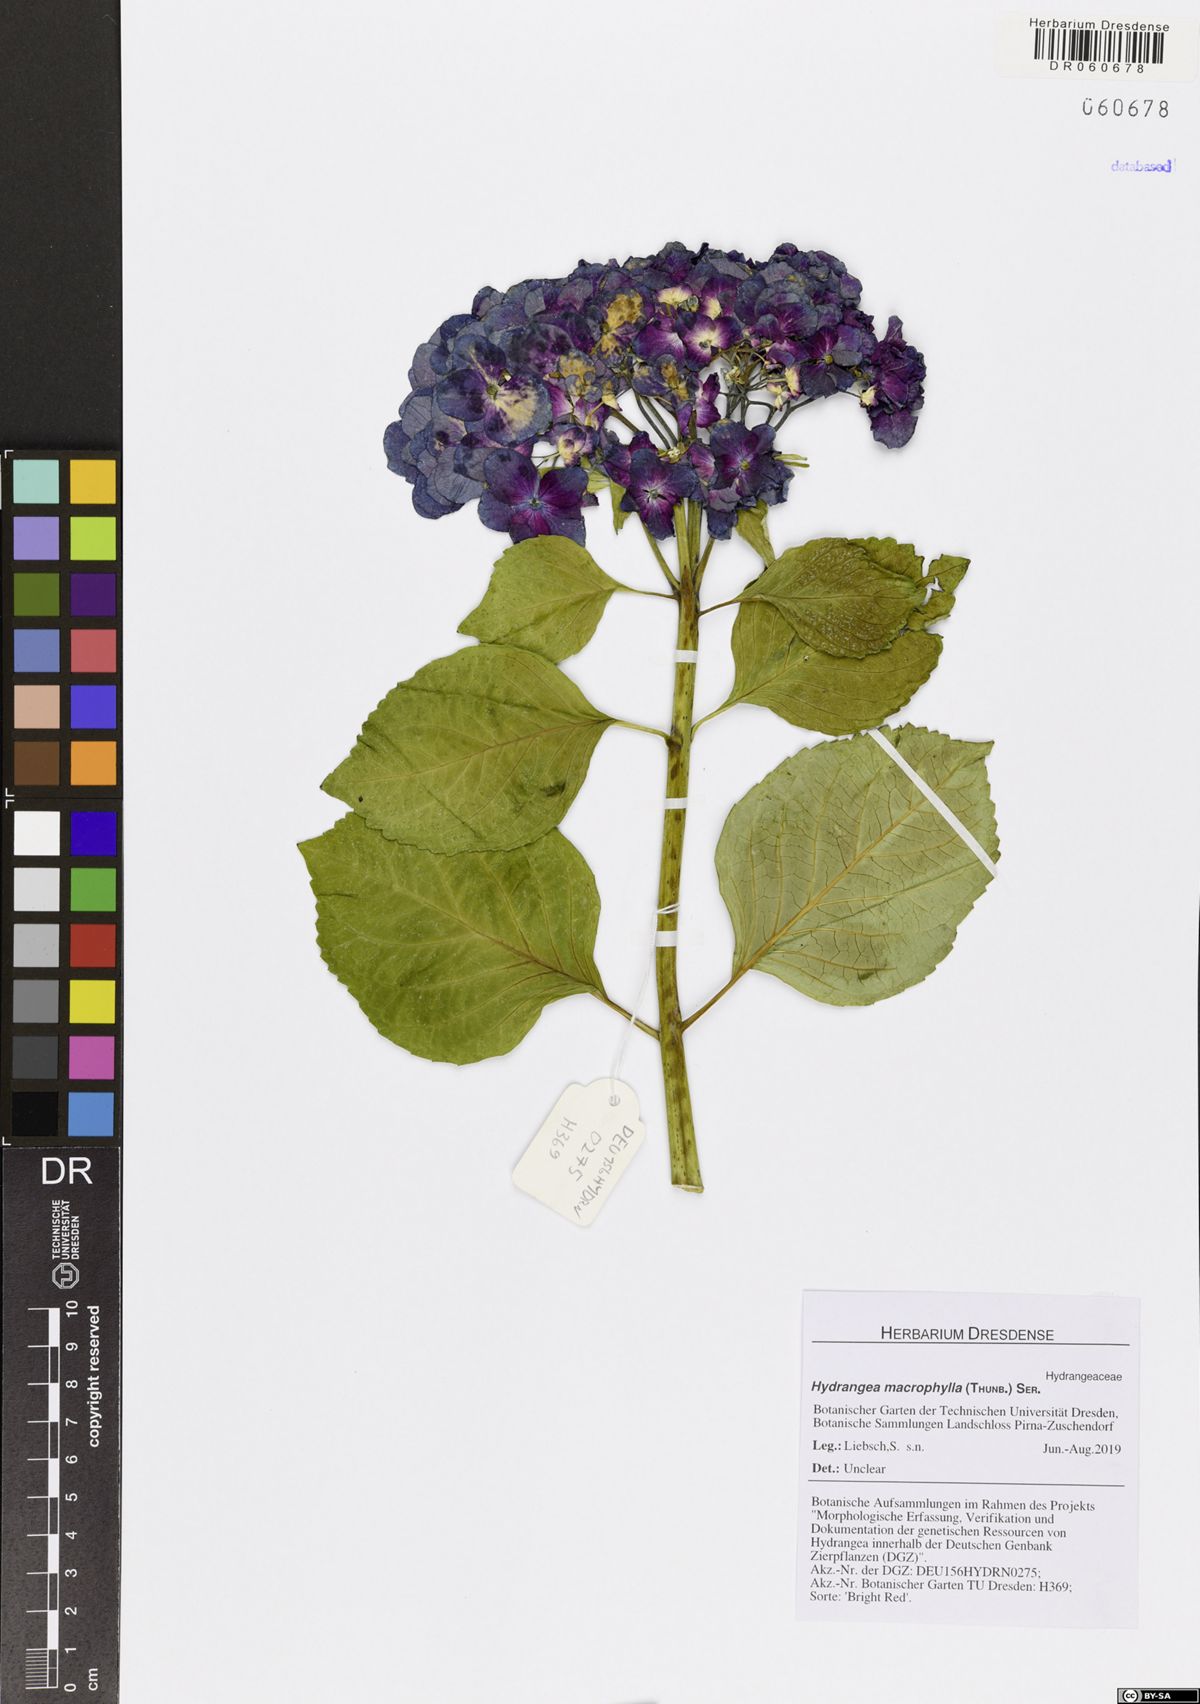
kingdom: Plantae
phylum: Tracheophyta
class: Magnoliopsida
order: Cornales
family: Hydrangeaceae
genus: Hydrangea
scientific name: Hydrangea macrophylla
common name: Hydrangea
